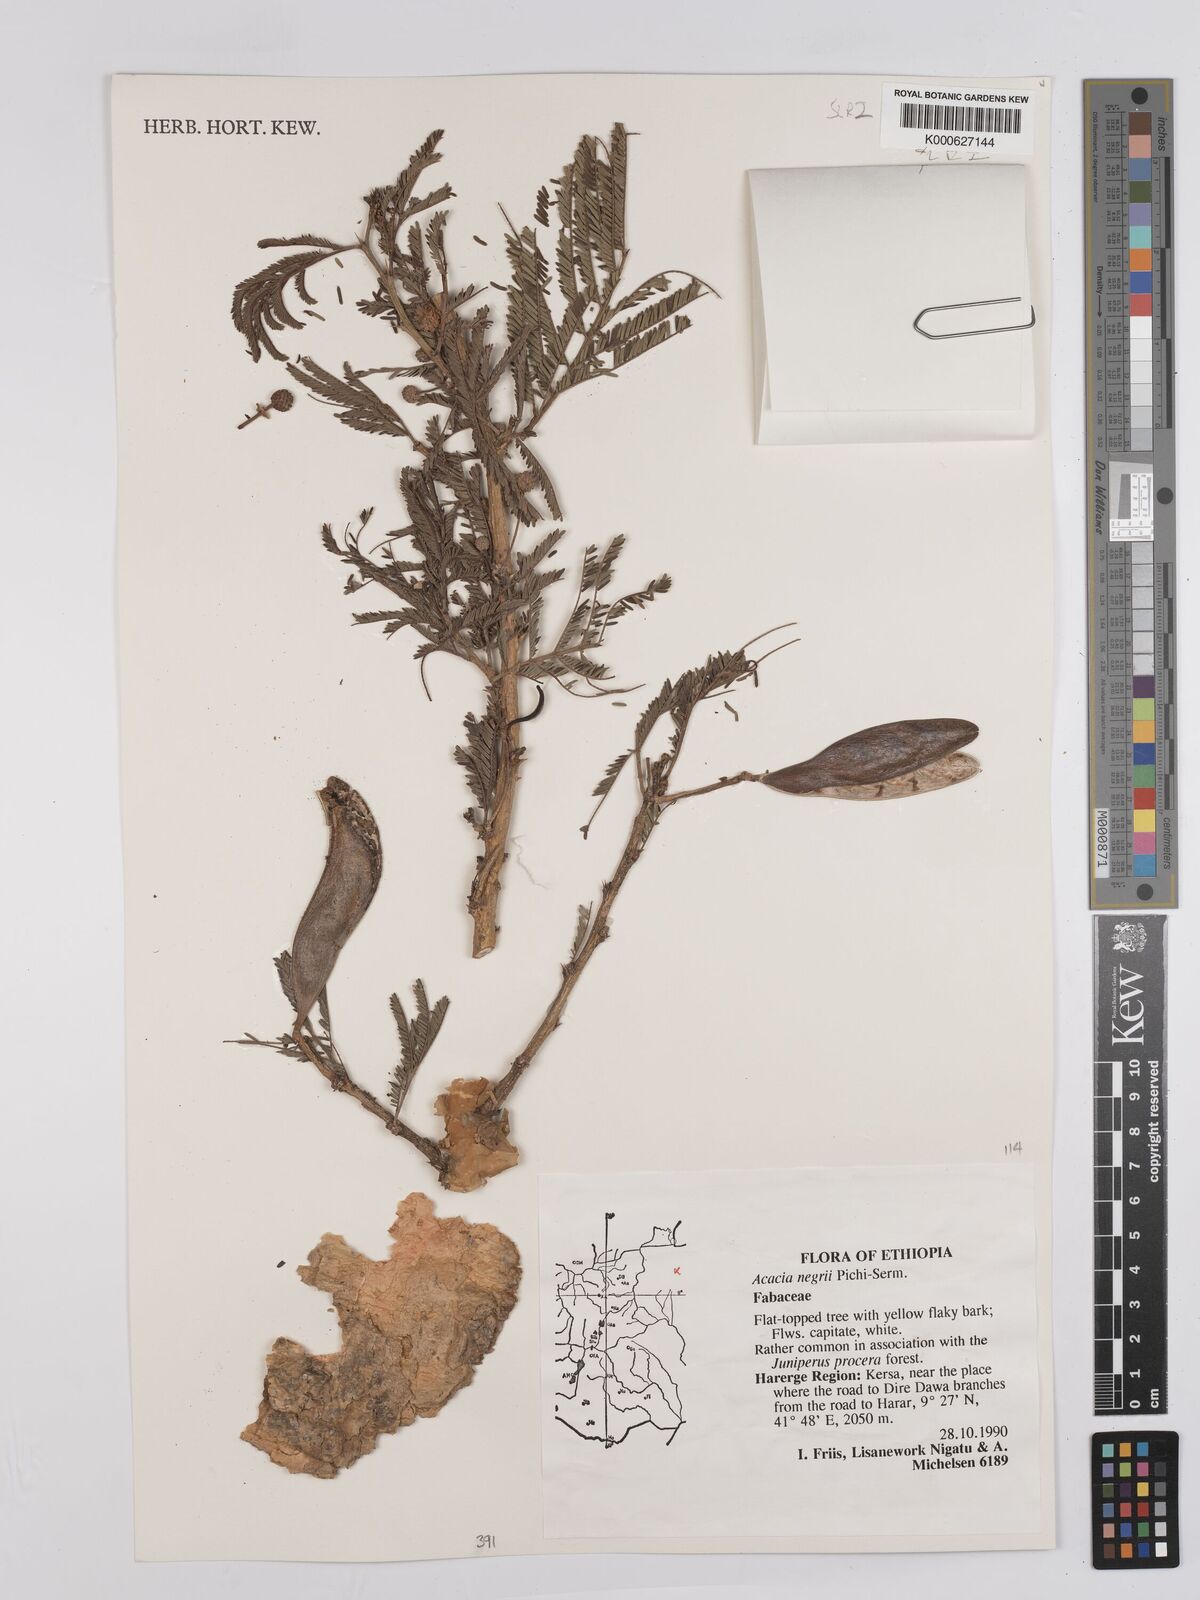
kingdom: Plantae
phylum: Tracheophyta
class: Magnoliopsida
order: Fabales
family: Fabaceae
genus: Vachellia
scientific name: Vachellia negrii
